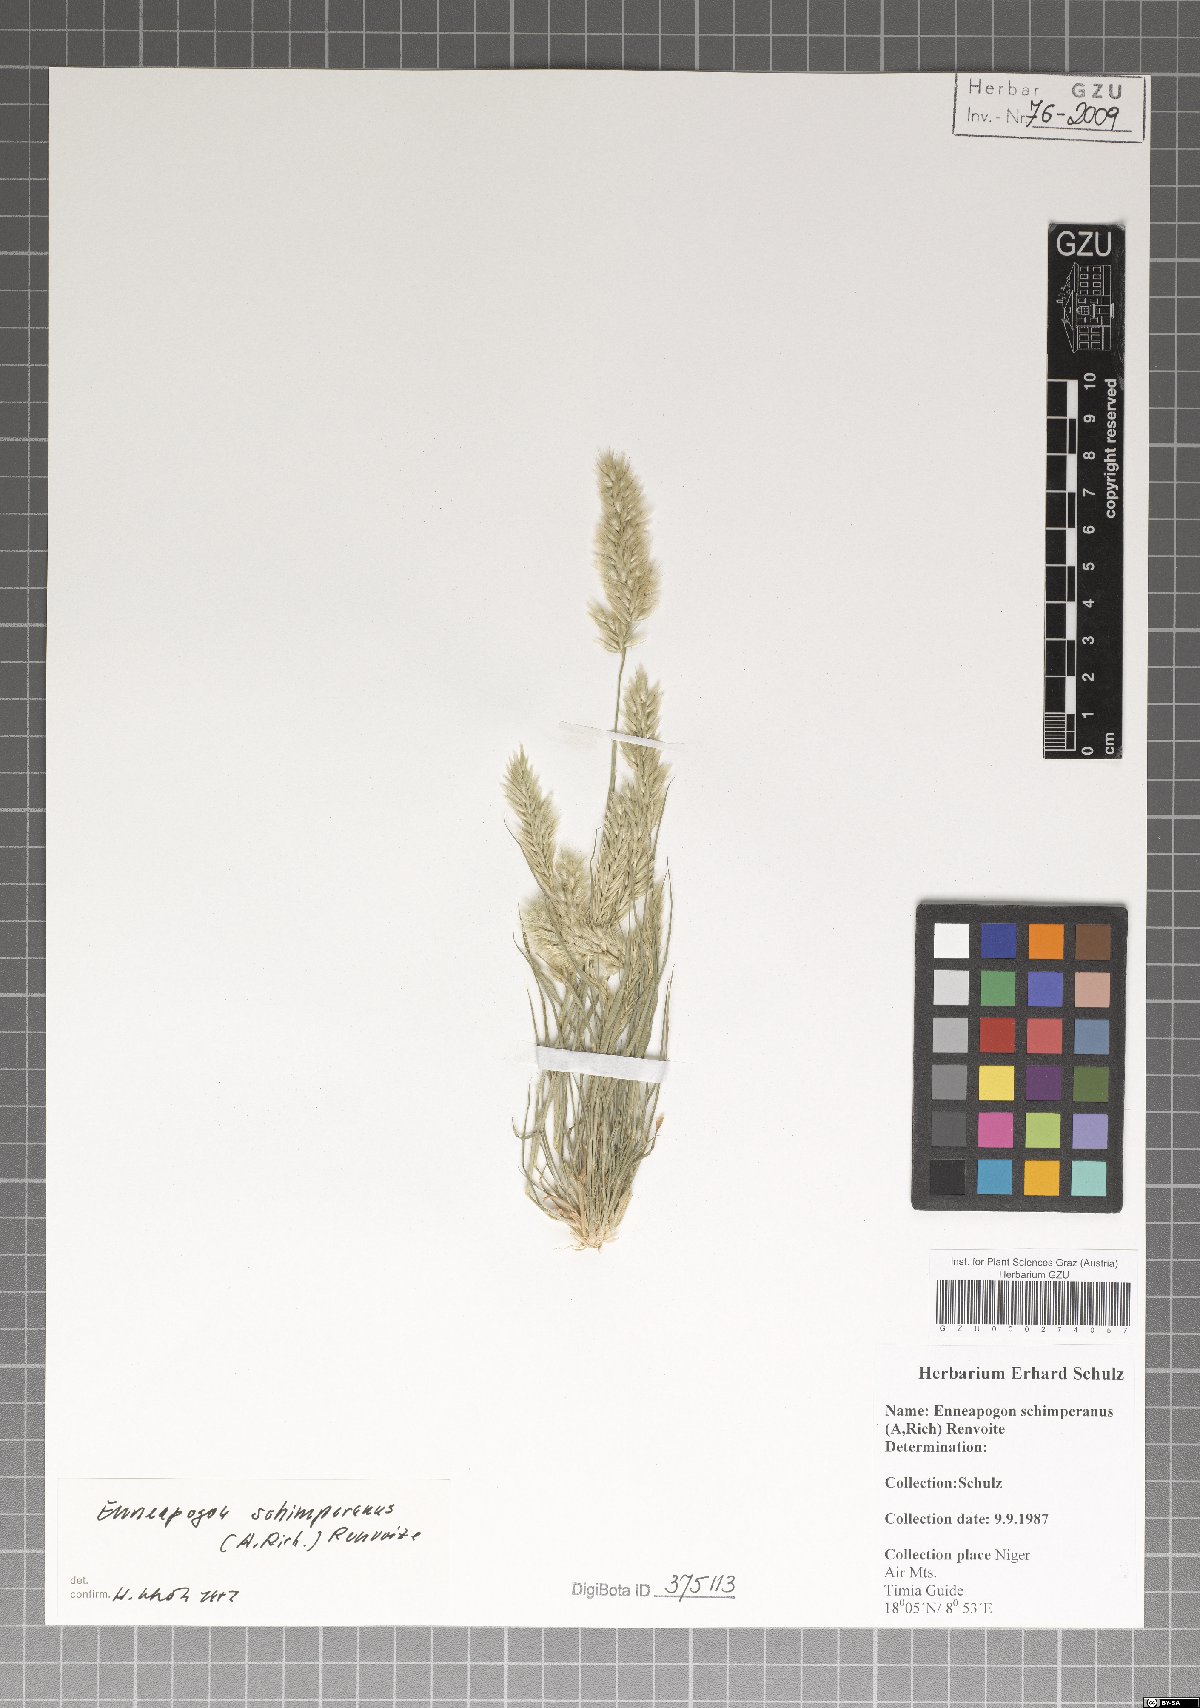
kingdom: Plantae
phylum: Tracheophyta
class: Liliopsida
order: Poales
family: Poaceae
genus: Enneapogon
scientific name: Enneapogon persicus
